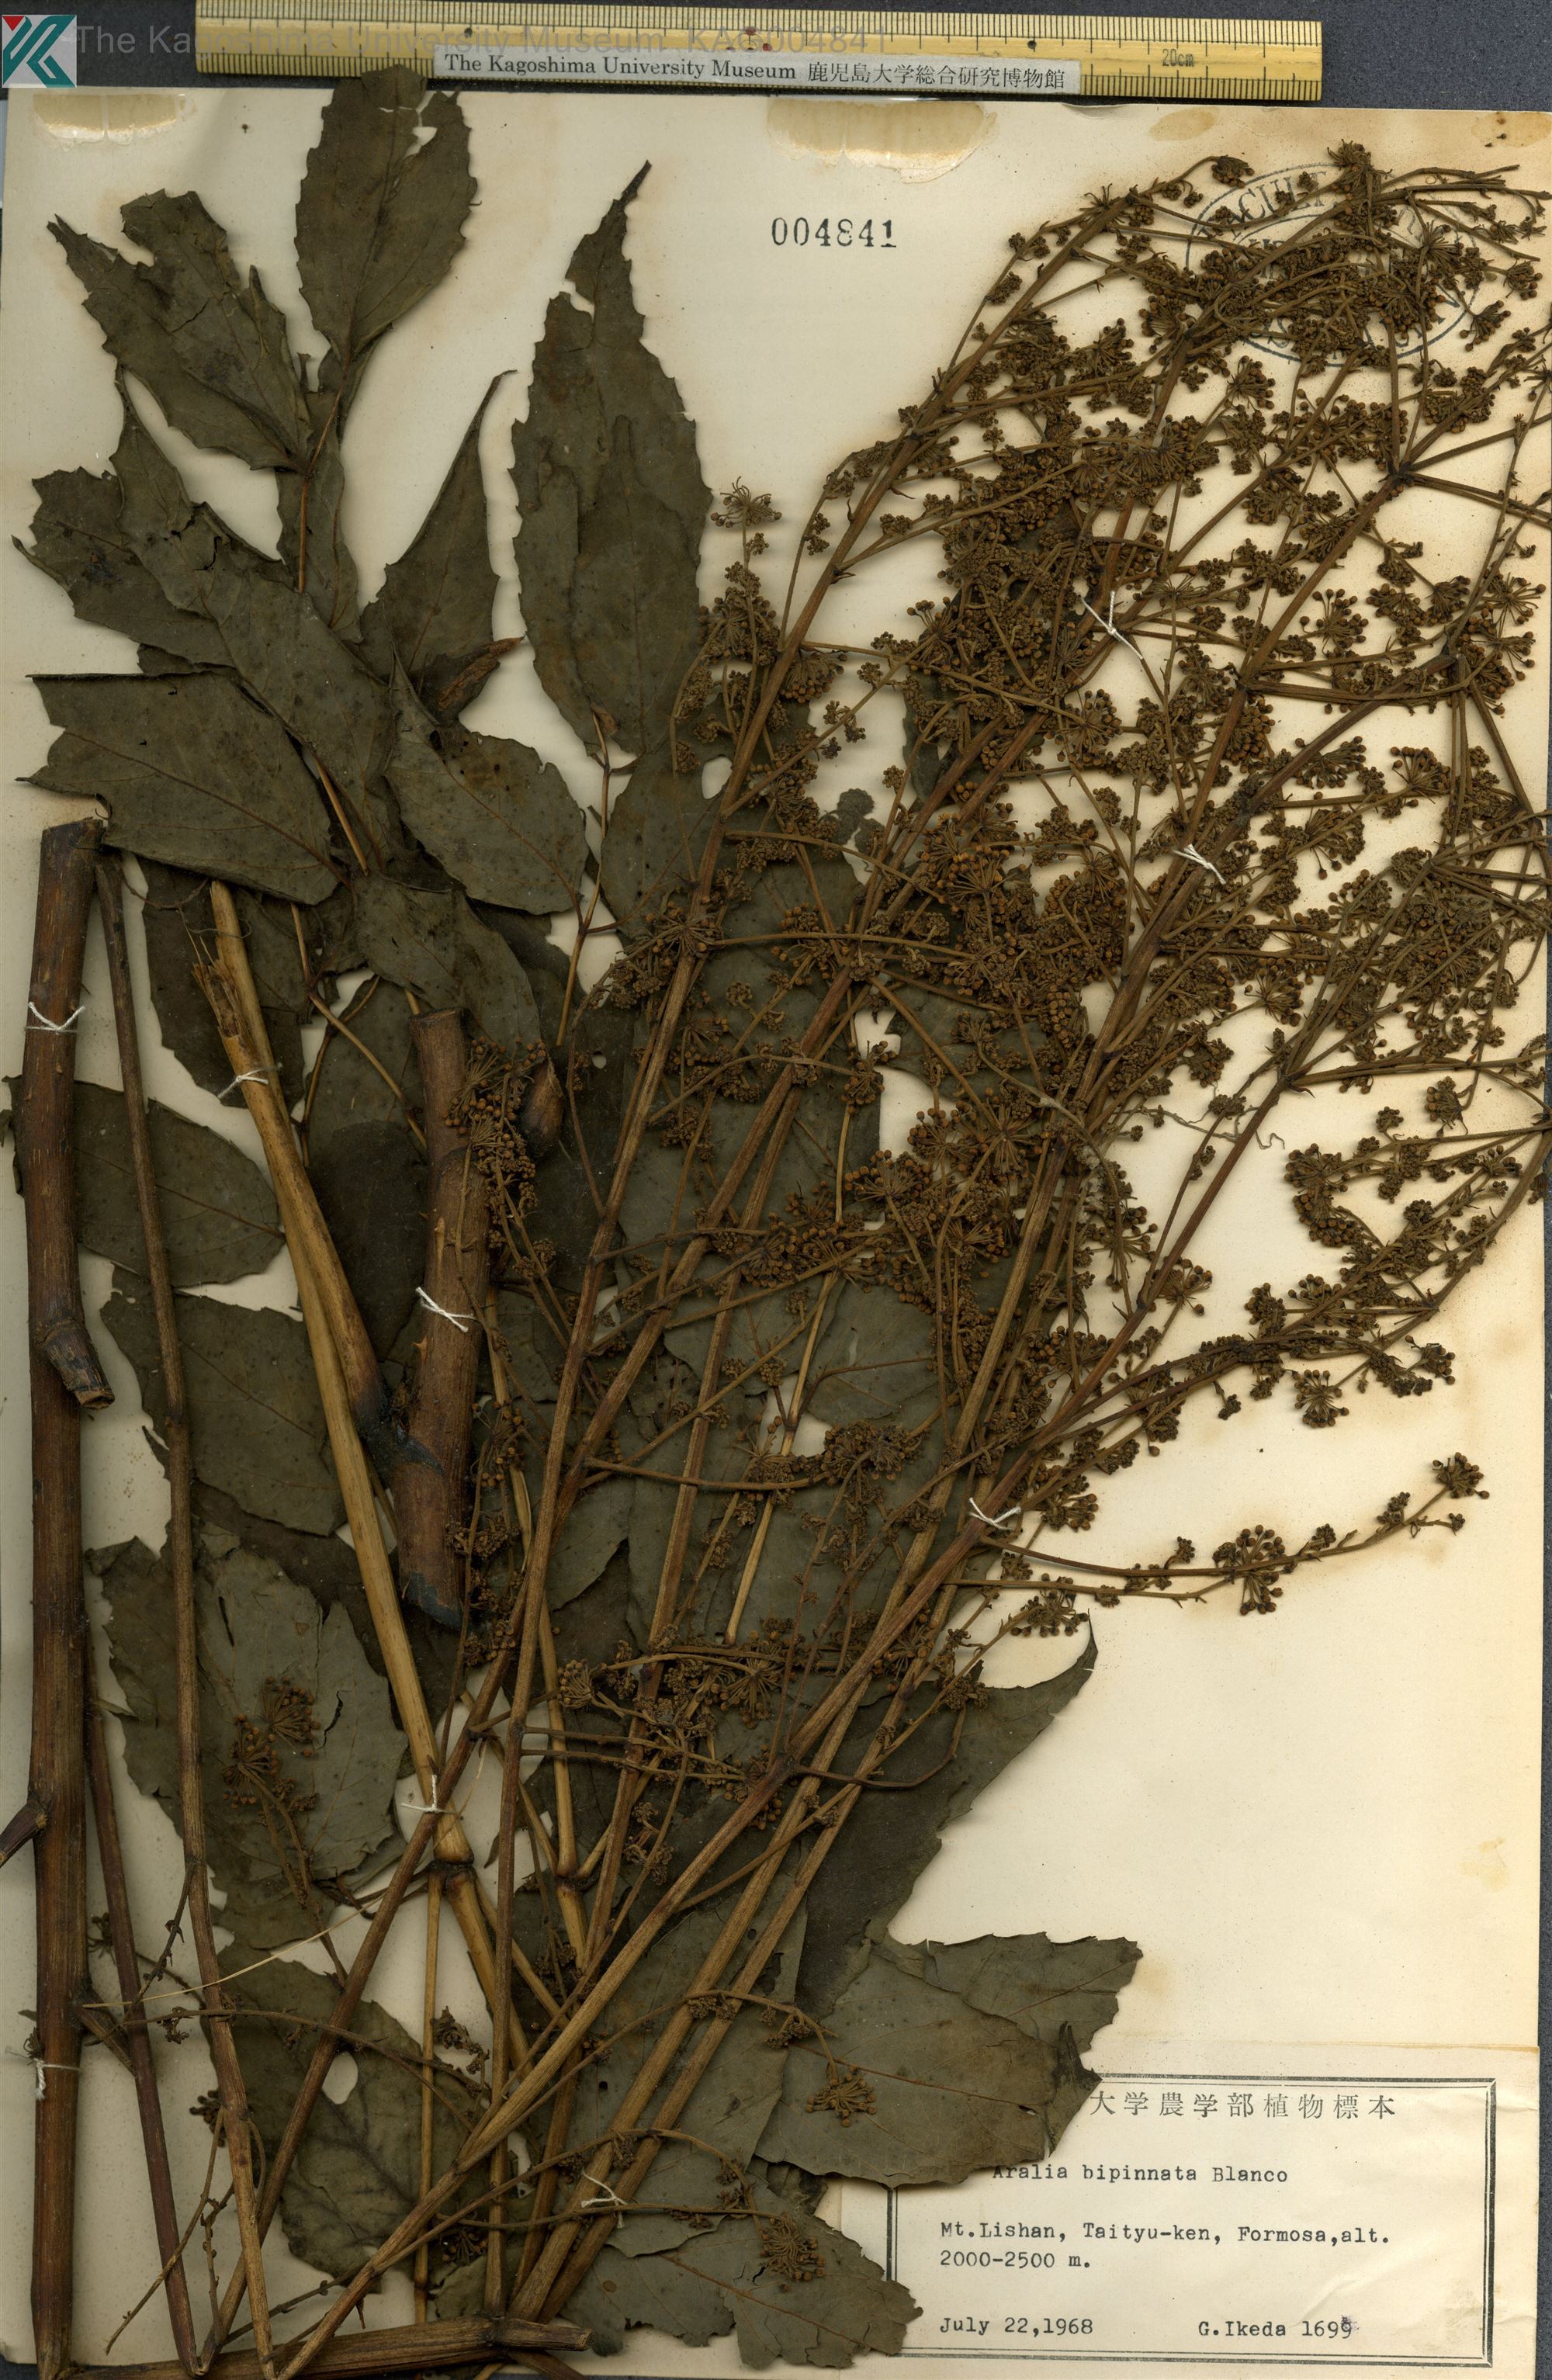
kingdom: Plantae
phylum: Tracheophyta
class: Magnoliopsida
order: Apiales
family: Araliaceae
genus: Aralia
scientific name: Aralia bipinnata
